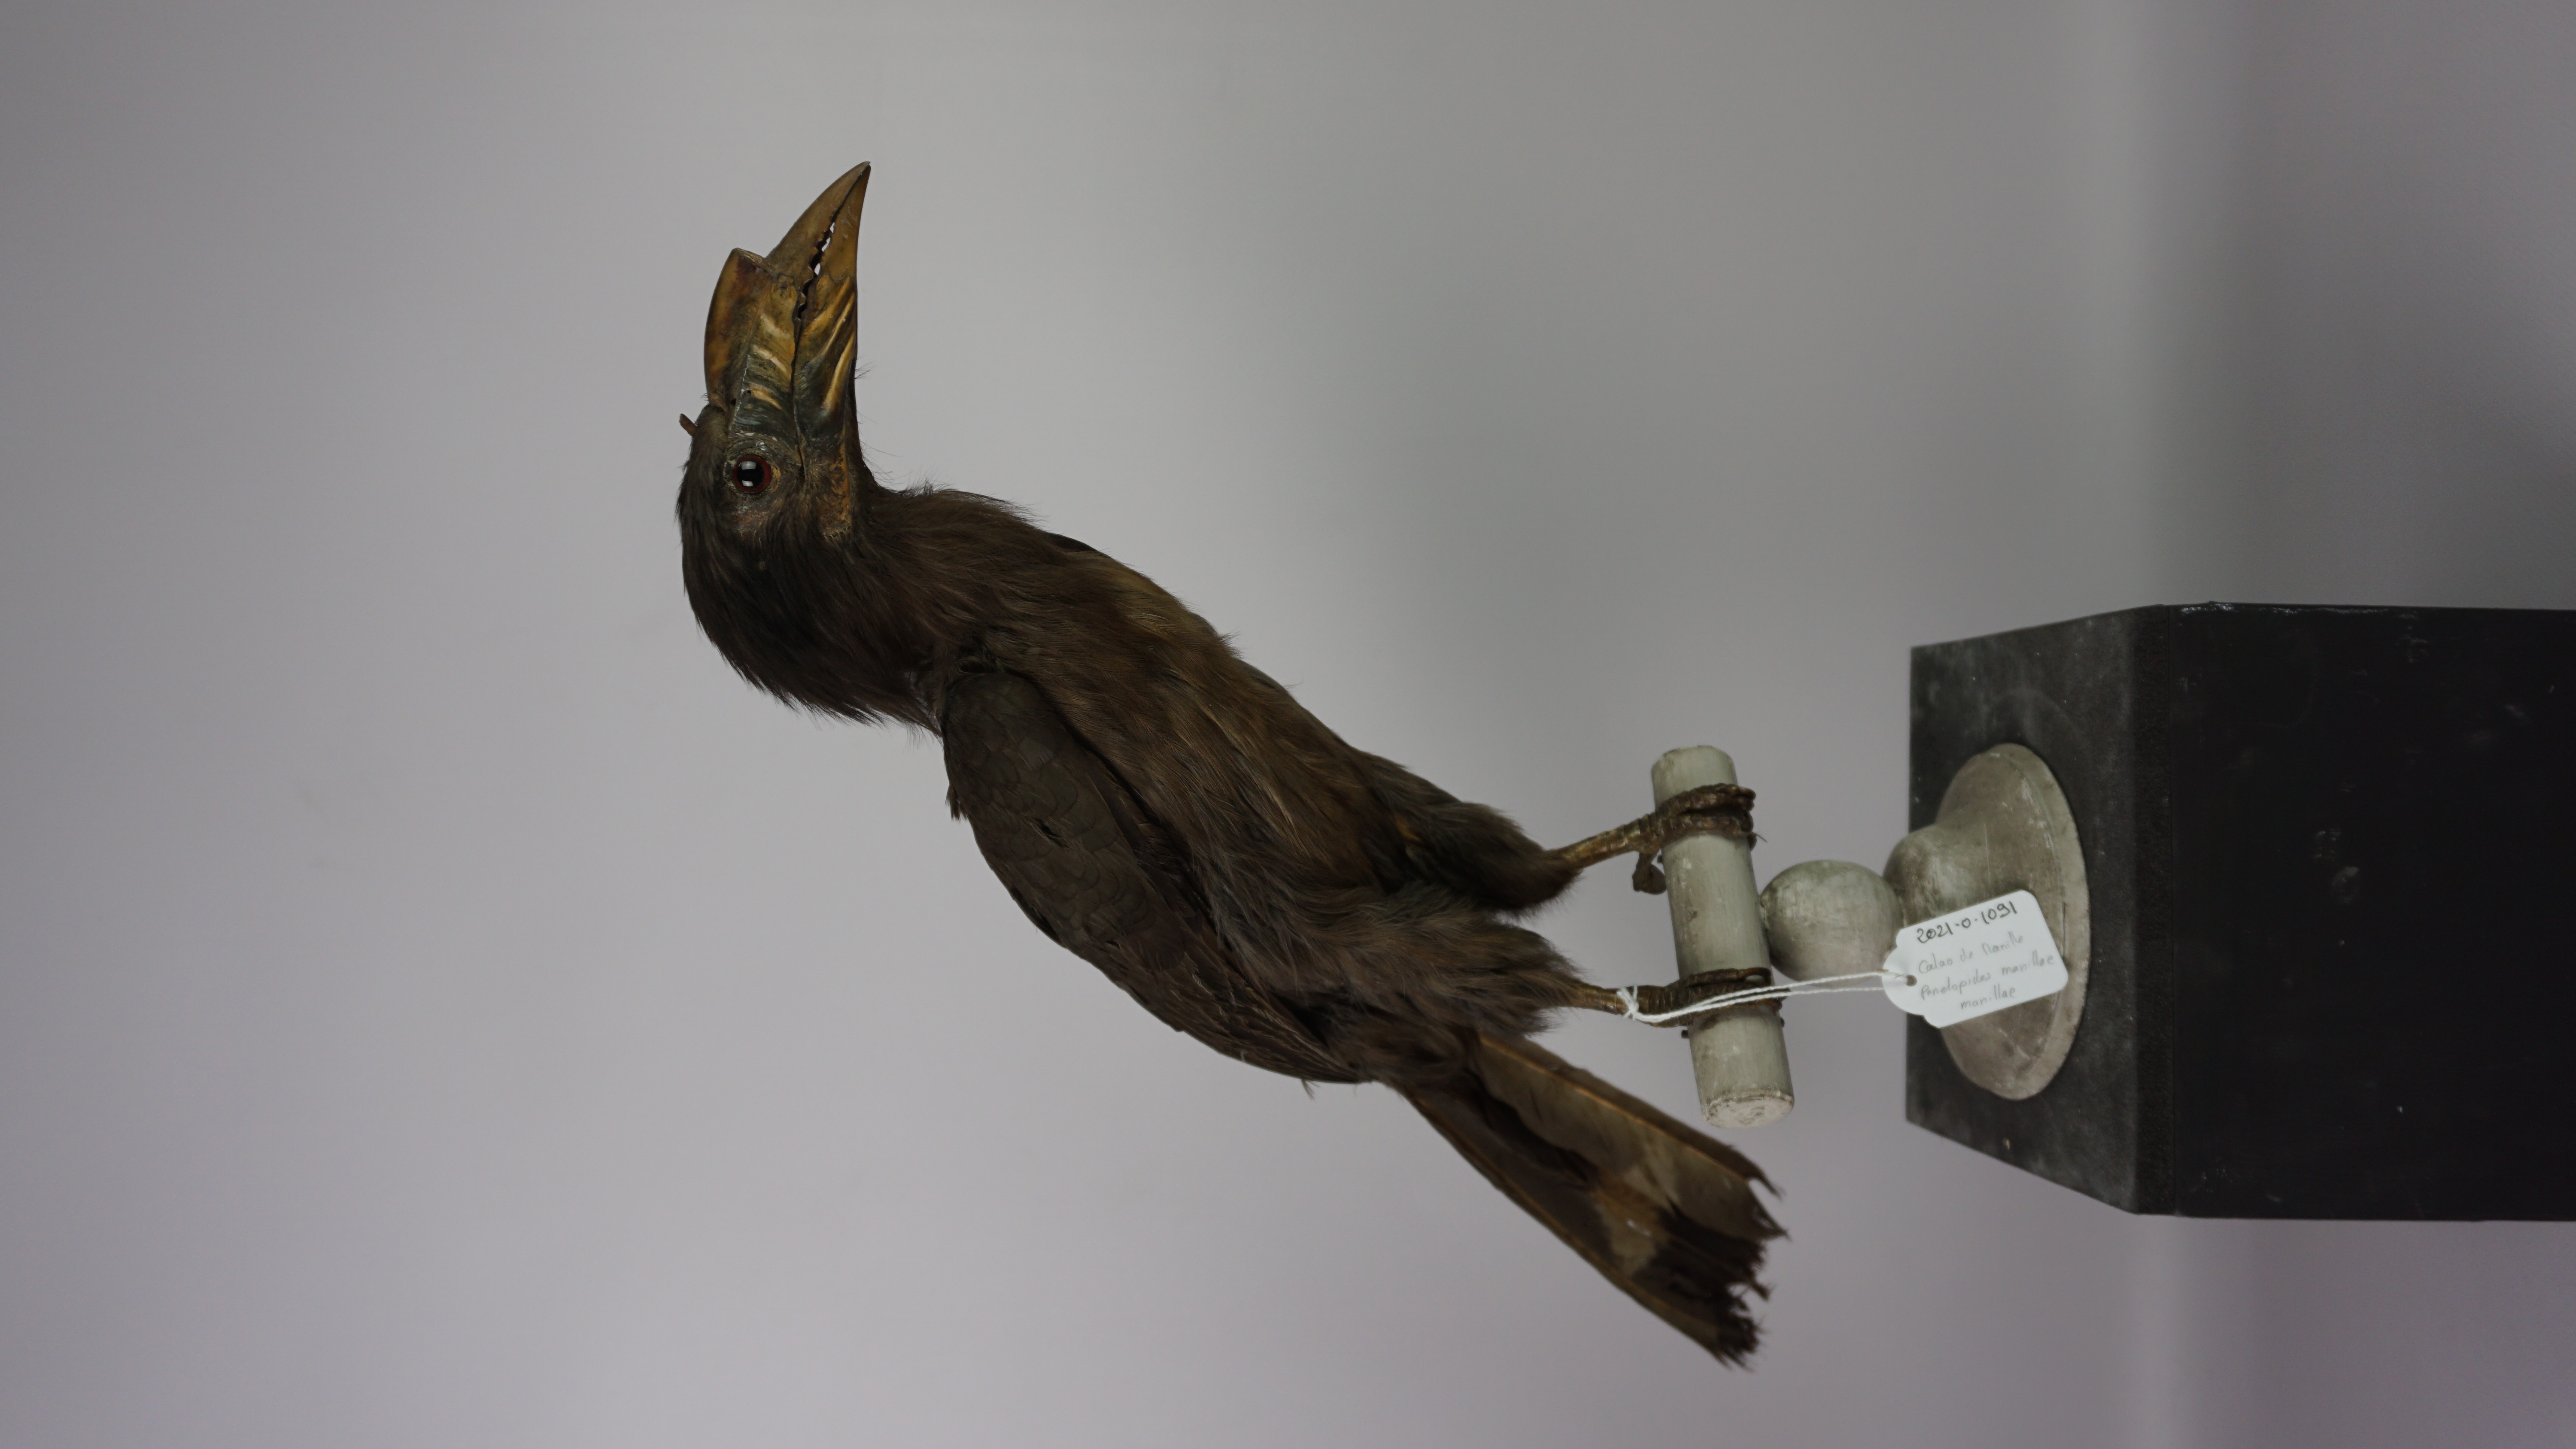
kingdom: Animalia
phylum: Chordata
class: Aves
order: Bucerotiformes
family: Bucerotidae
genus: Penelopides
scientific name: Penelopides manillae
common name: Luzon hornbill
